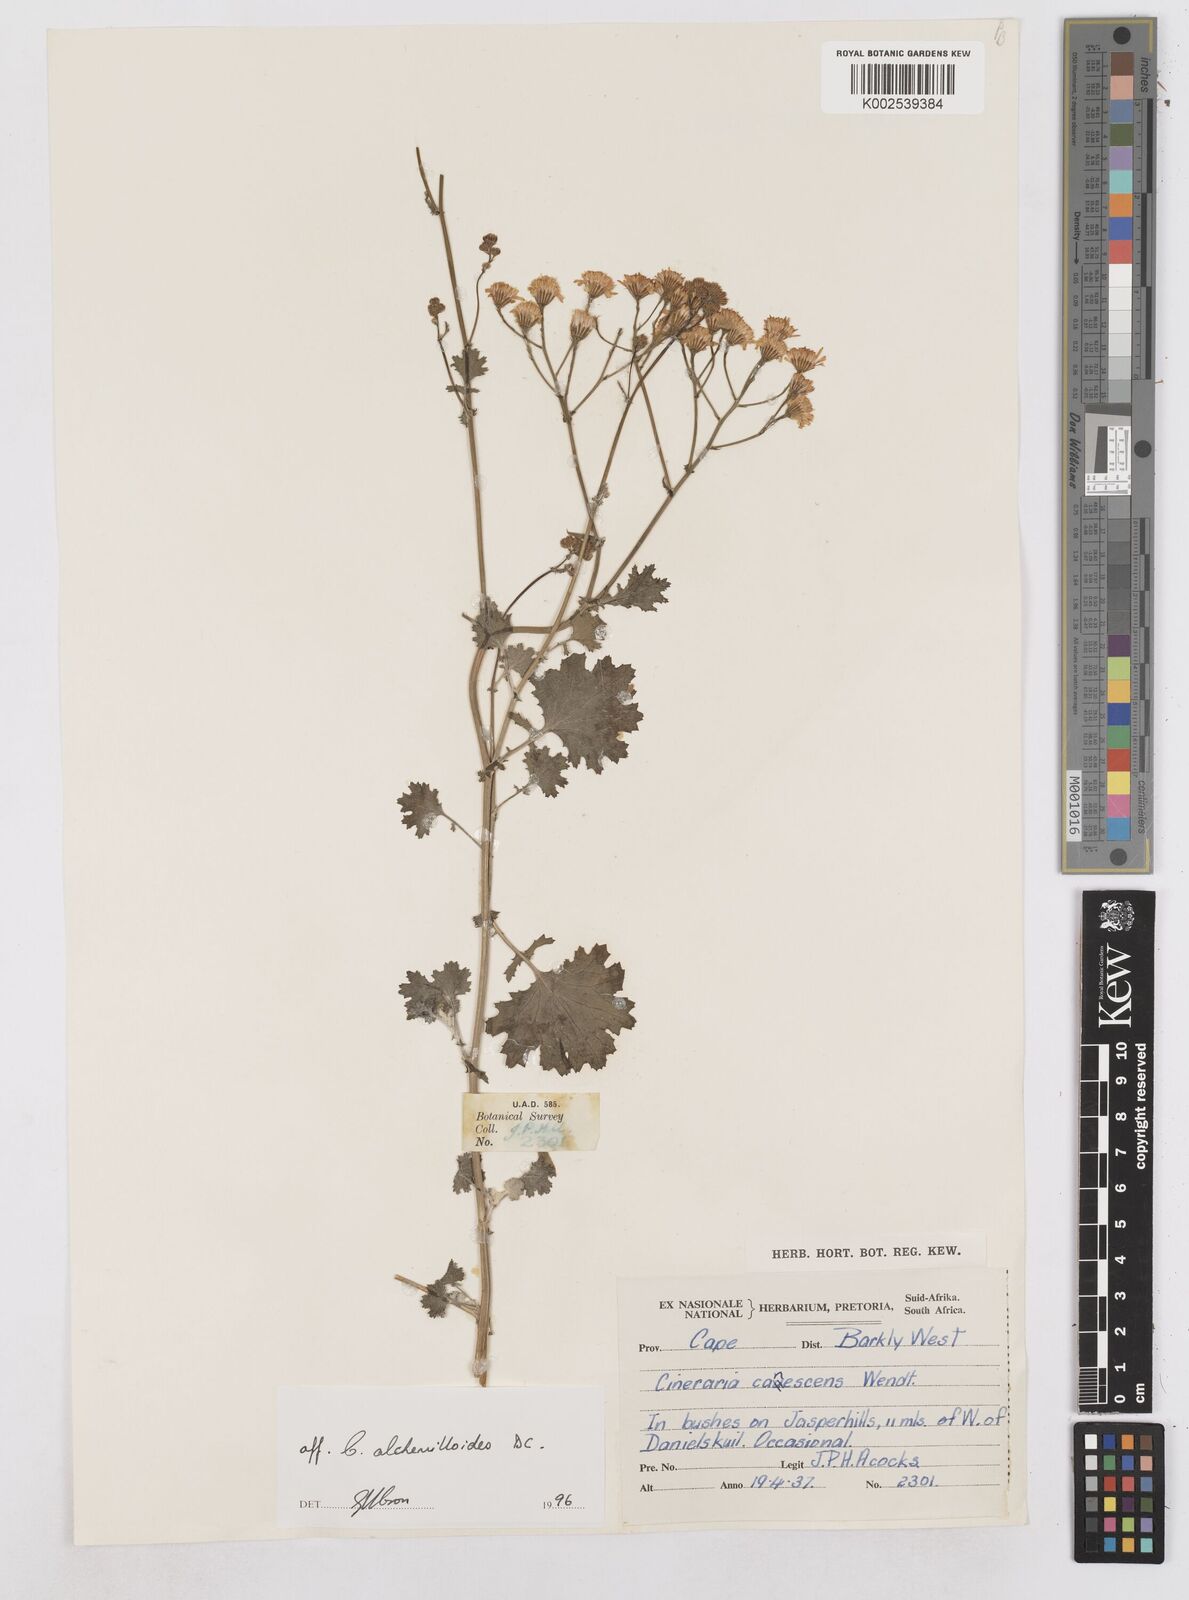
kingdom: Plantae
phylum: Tracheophyta
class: Magnoliopsida
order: Asterales
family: Asteraceae
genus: Cineraria
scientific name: Cineraria alchemilloides
